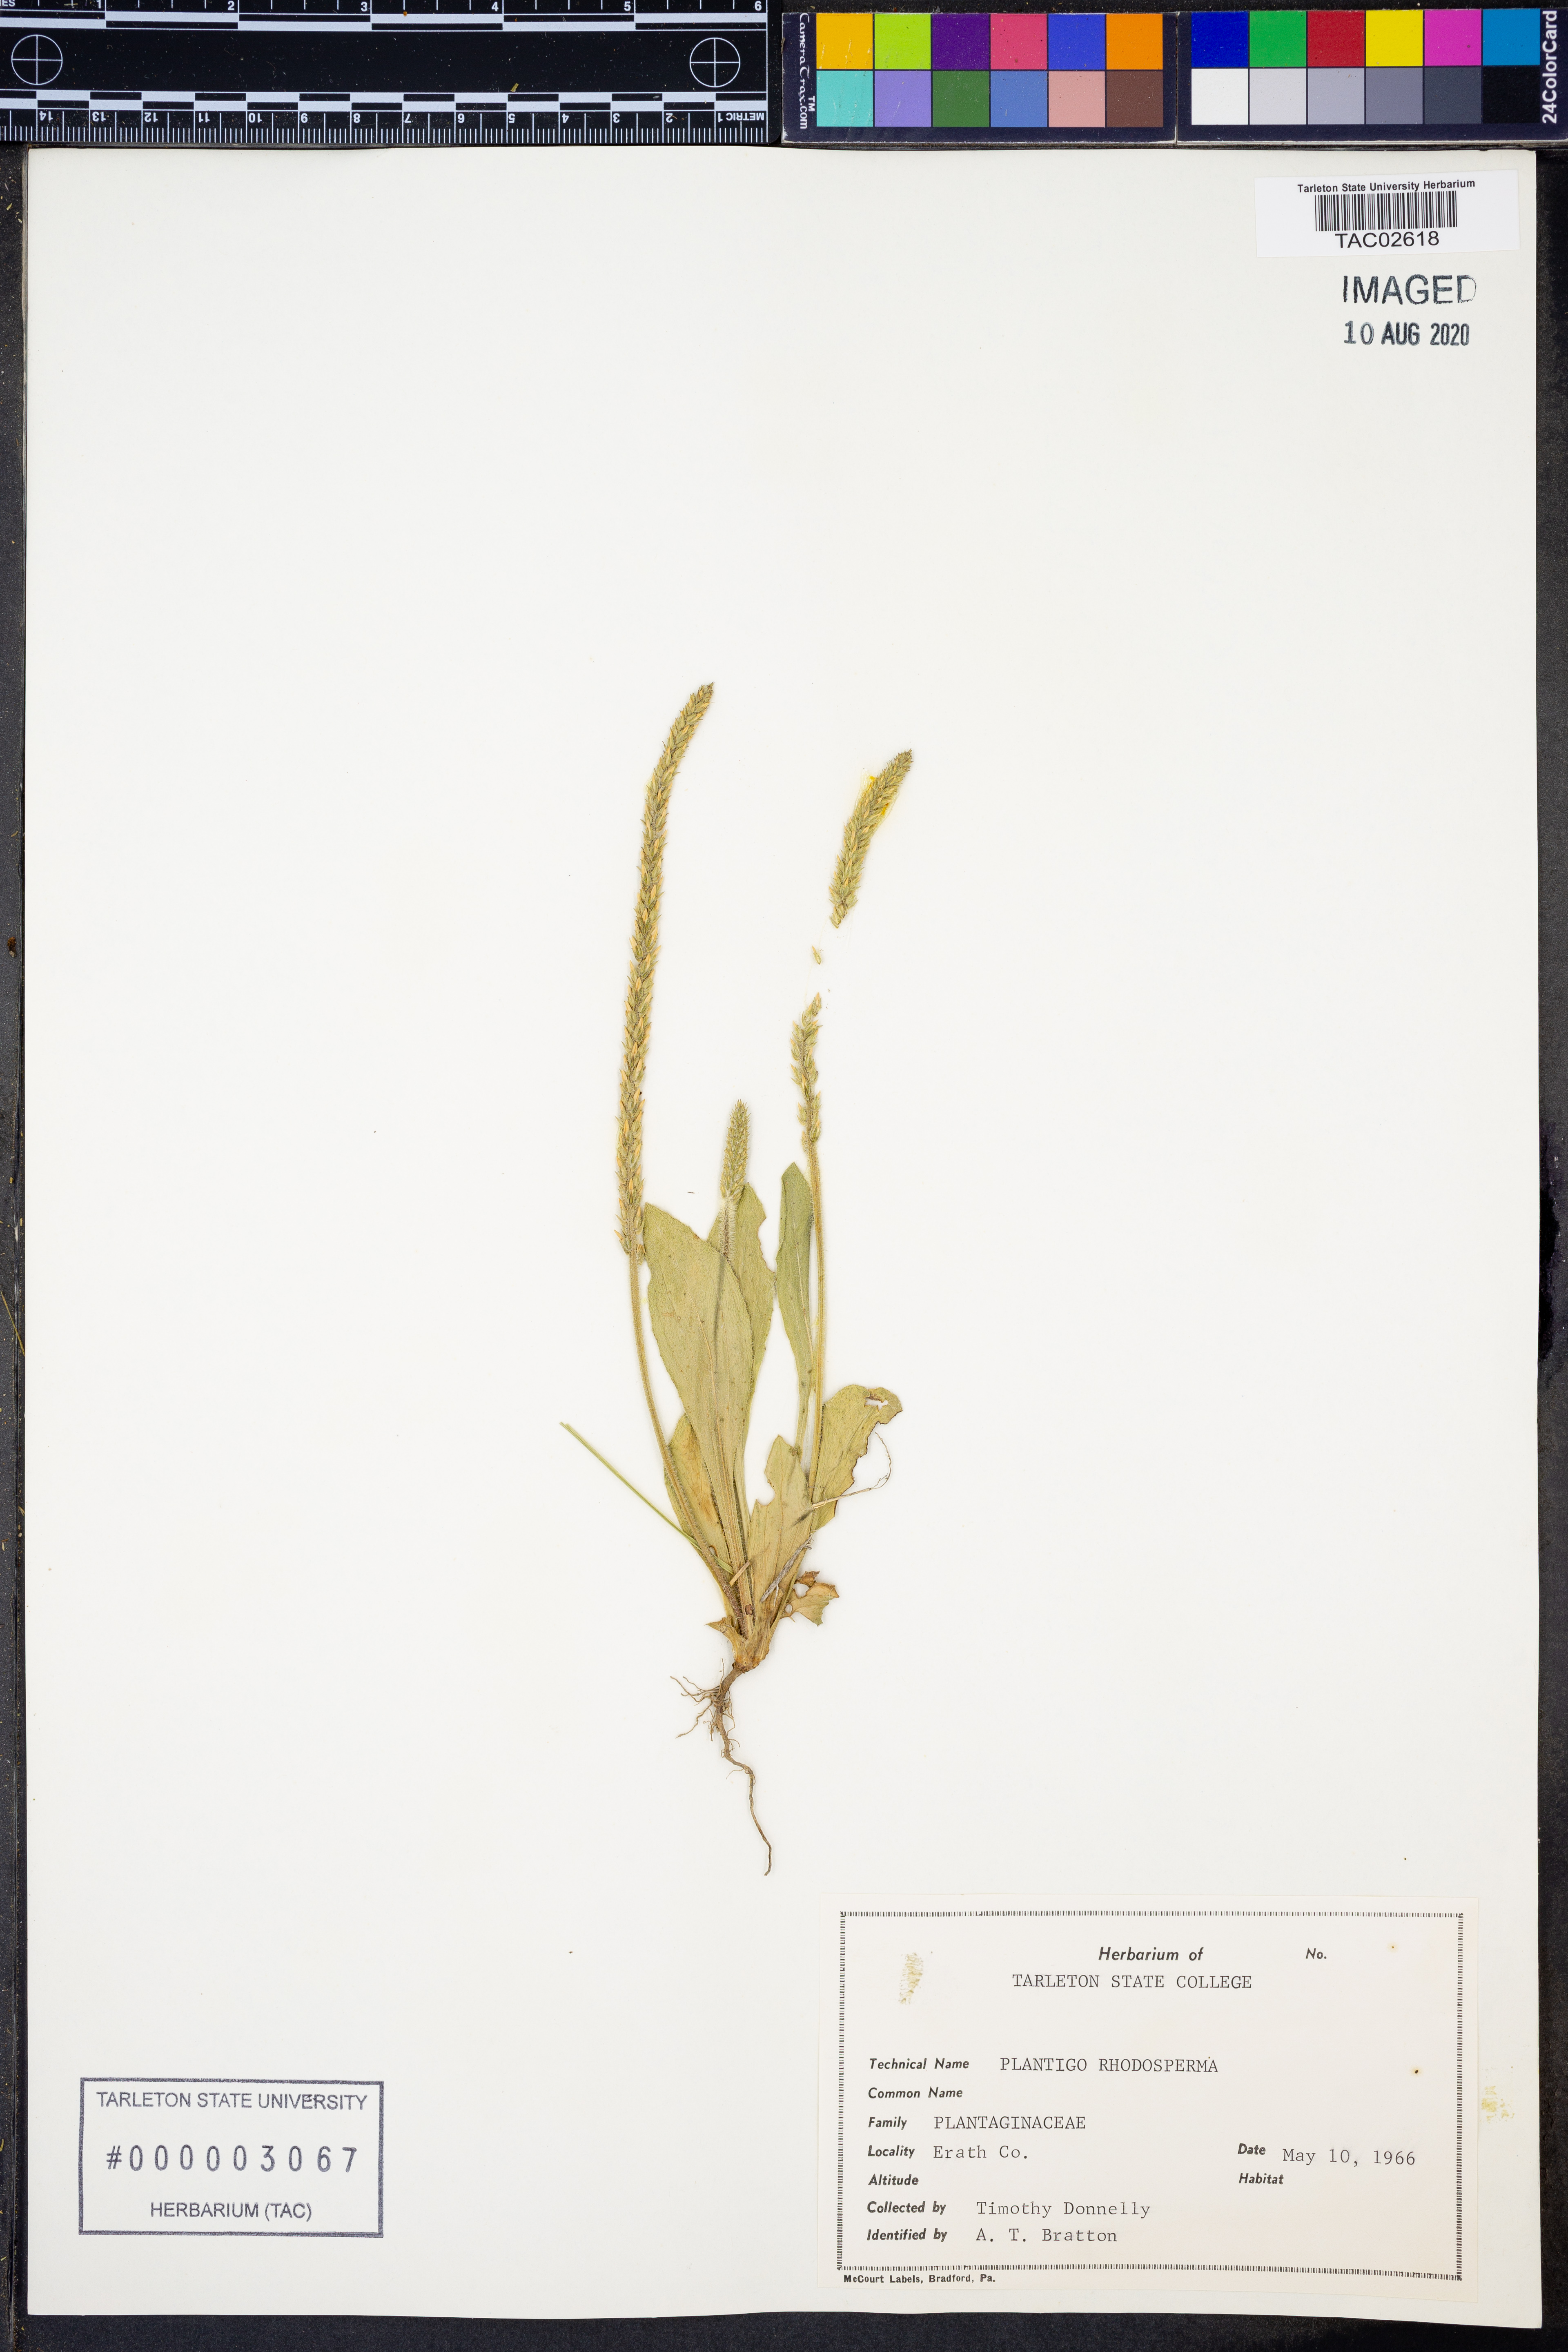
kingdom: Plantae
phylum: Tracheophyta
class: Magnoliopsida
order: Lamiales
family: Plantaginaceae
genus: Plantago
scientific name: Plantago rhodosperma
